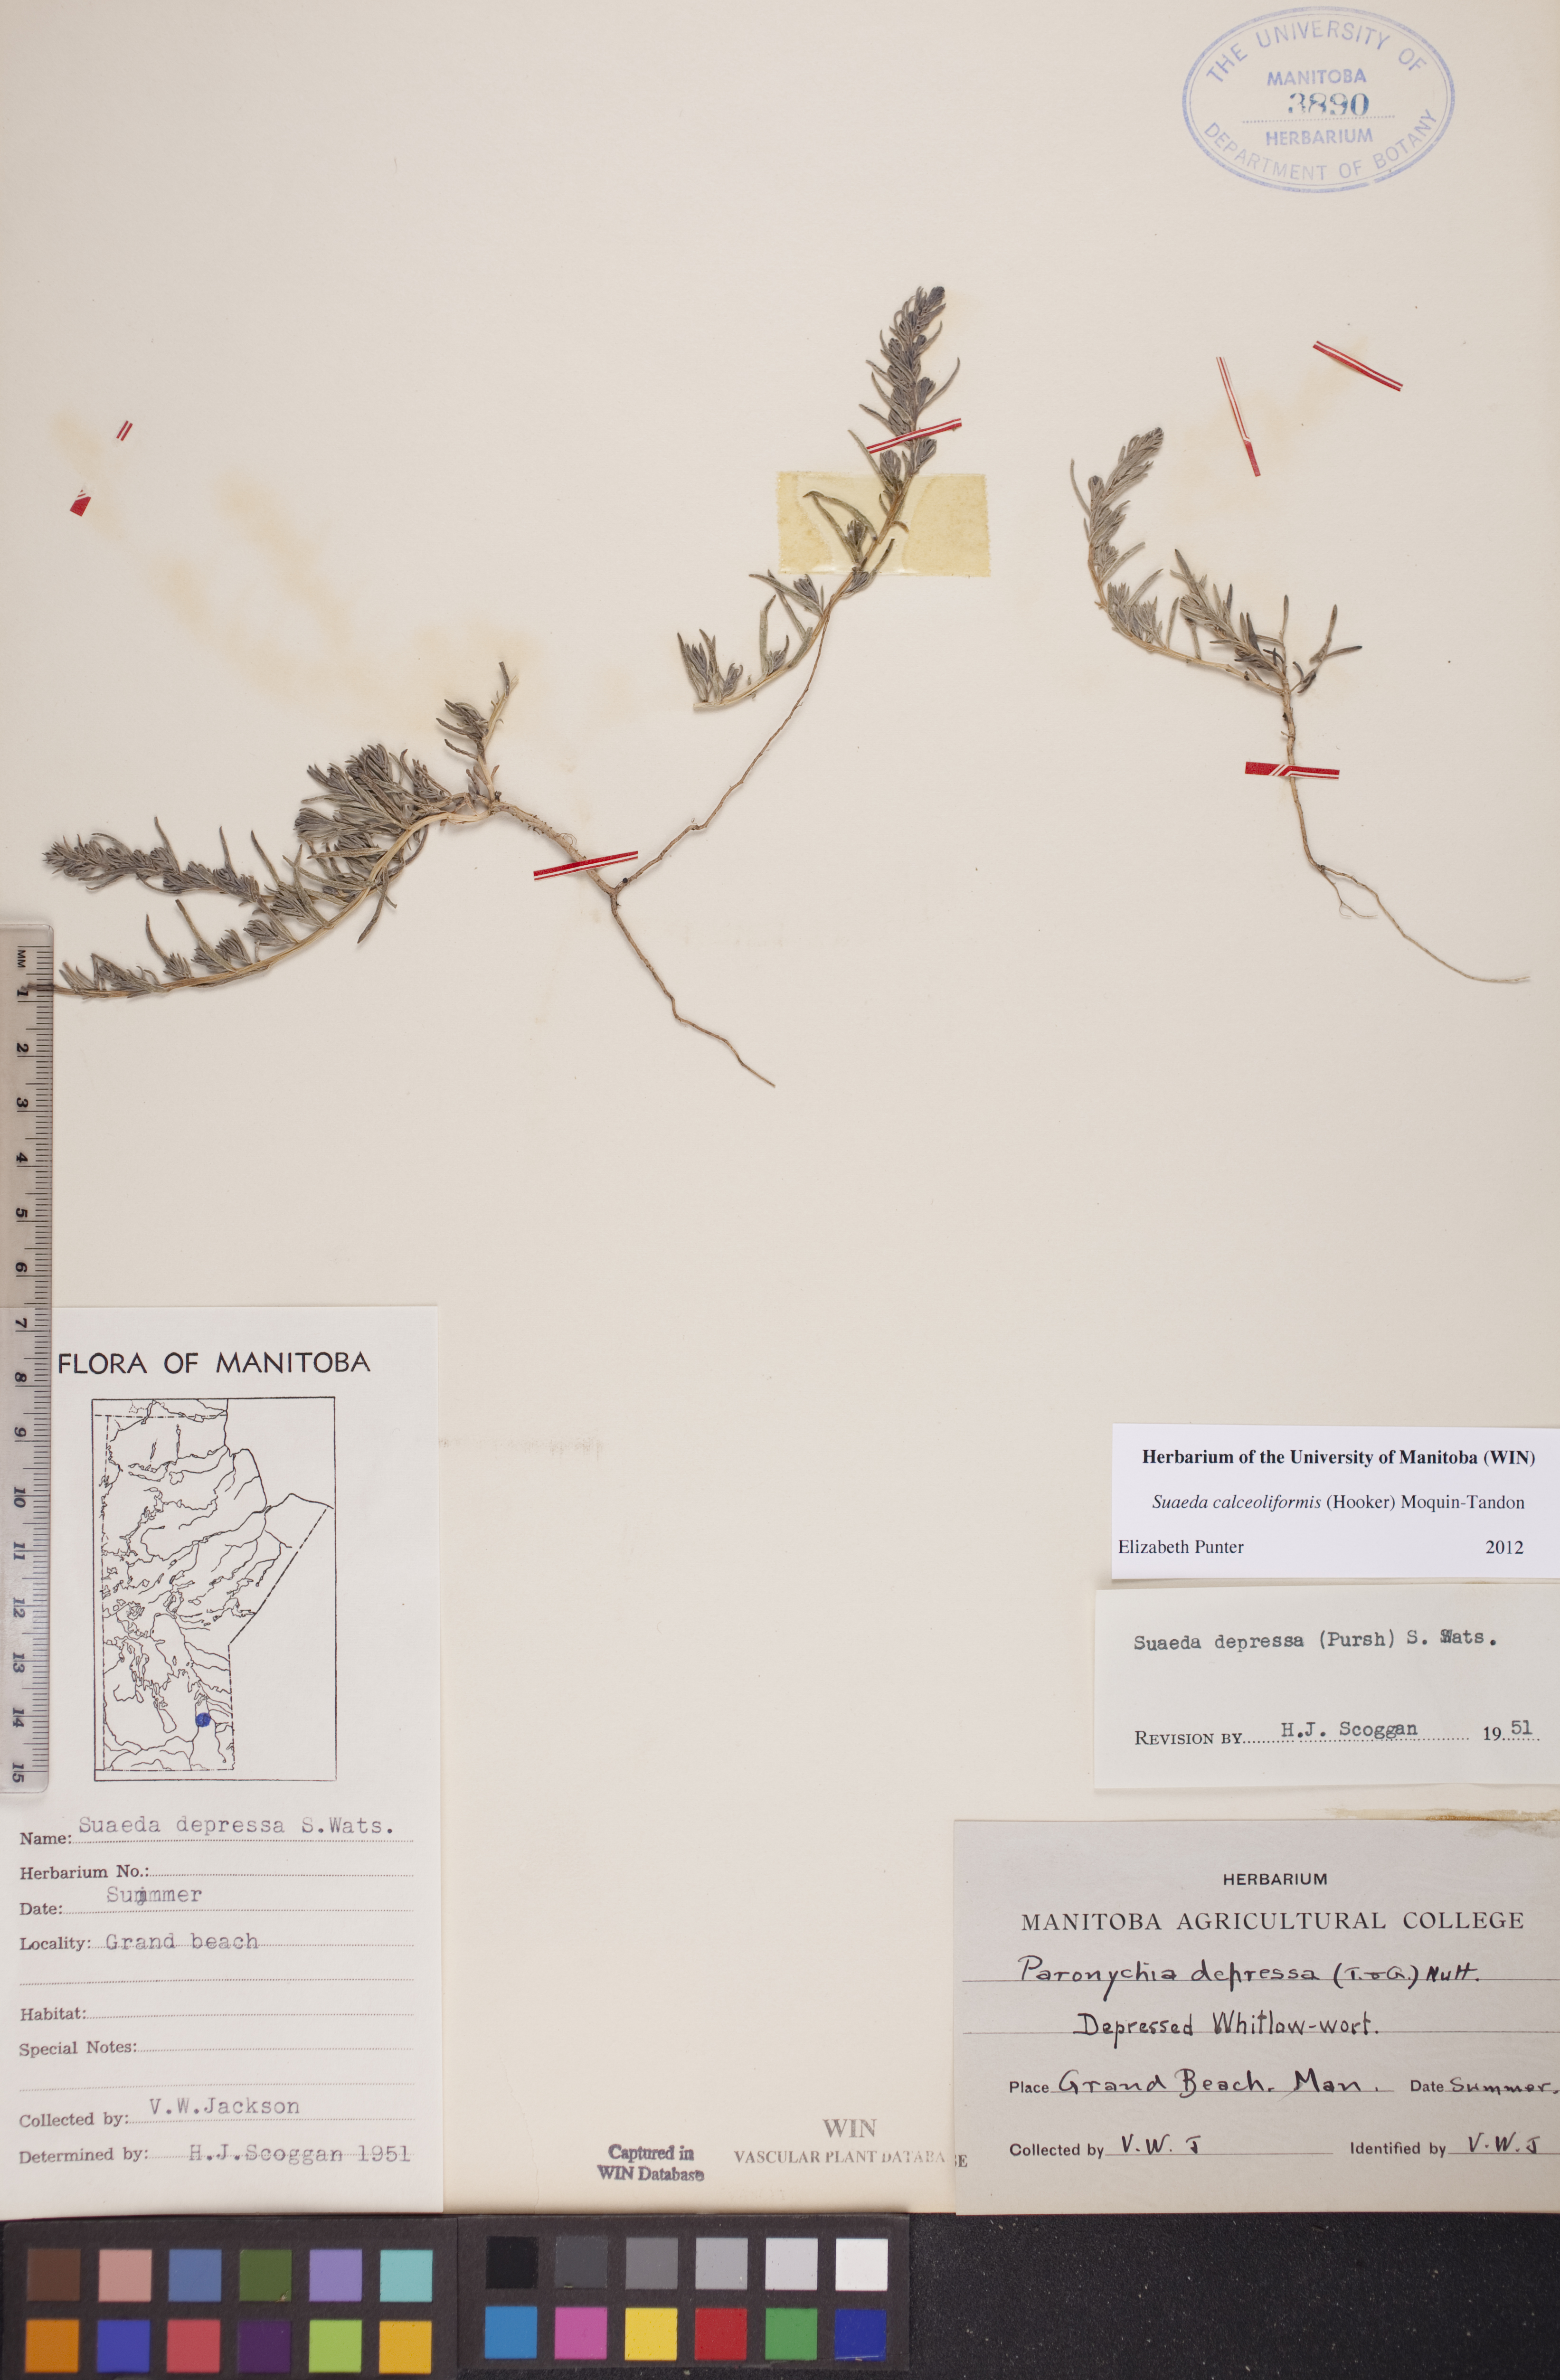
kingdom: Plantae
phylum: Tracheophyta
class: Magnoliopsida
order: Caryophyllales
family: Amaranthaceae
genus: Suaeda
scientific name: Suaeda calceoliformis
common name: Pursh's seepweed
